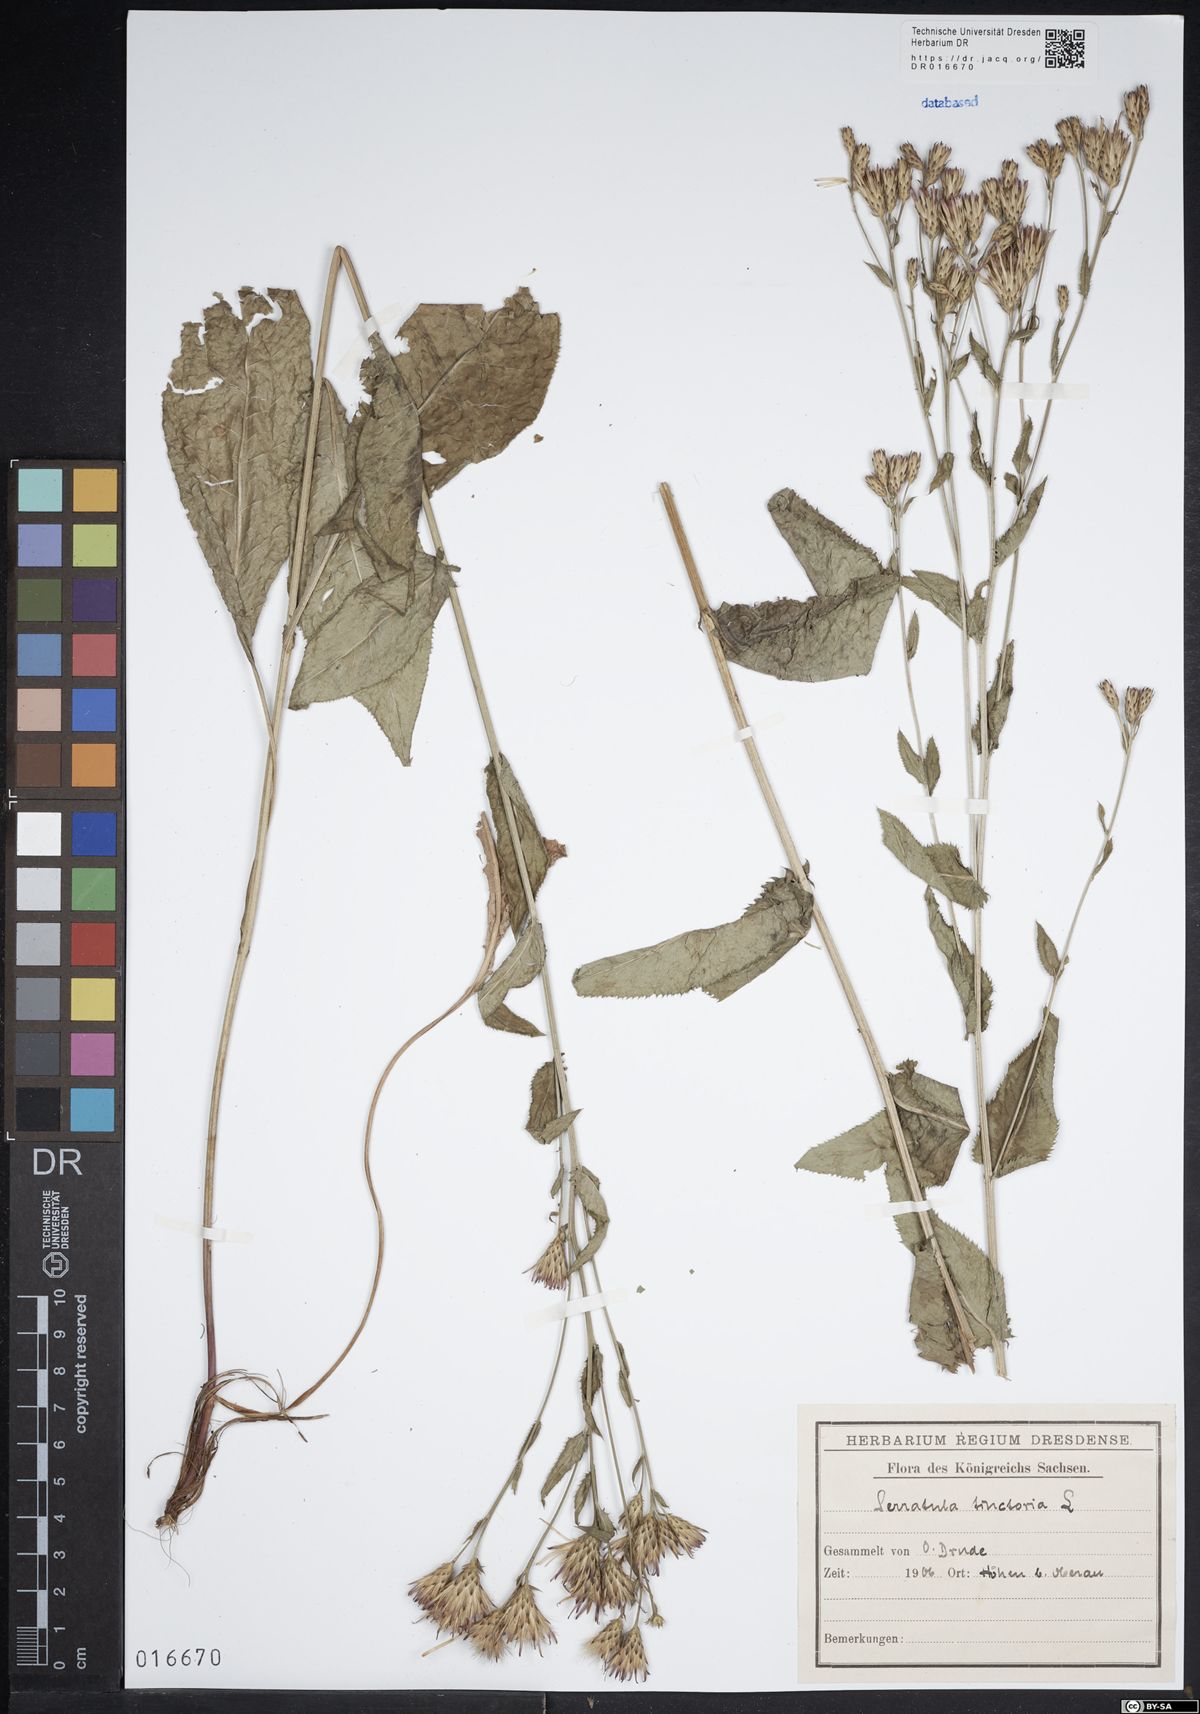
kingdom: Plantae
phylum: Tracheophyta
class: Magnoliopsida
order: Asterales
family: Asteraceae
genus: Serratula
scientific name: Serratula tinctoria
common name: Saw-wort
